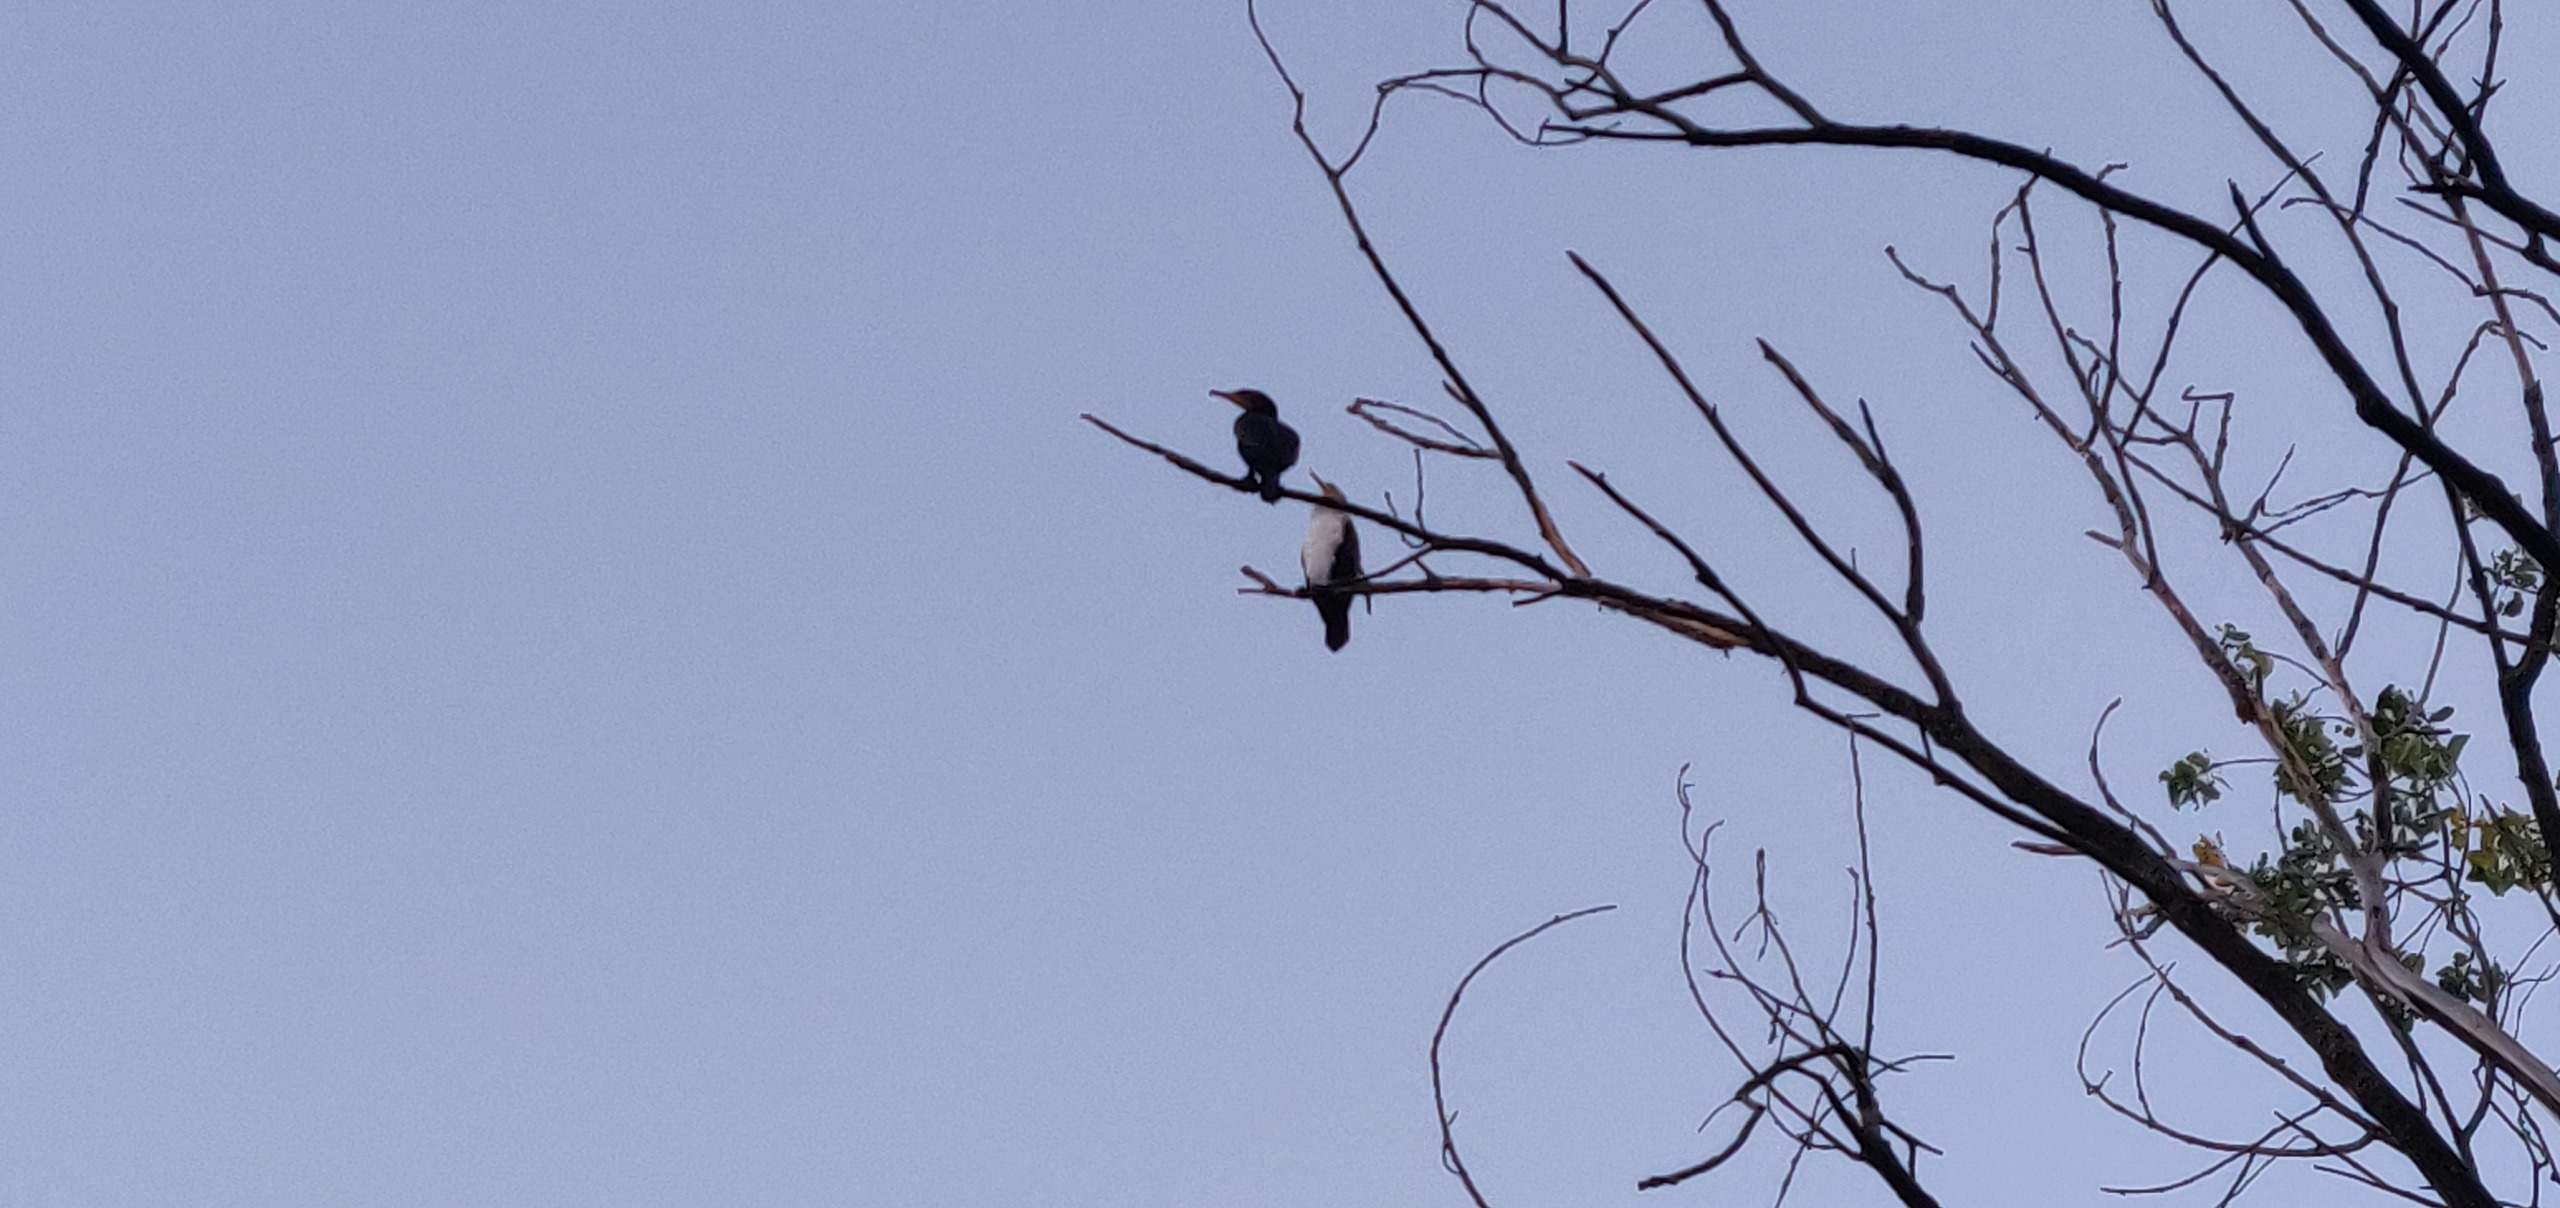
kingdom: Animalia
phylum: Chordata
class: Aves
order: Suliformes
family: Phalacrocoracidae
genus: Phalacrocorax
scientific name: Phalacrocorax carbo
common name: Skarv
